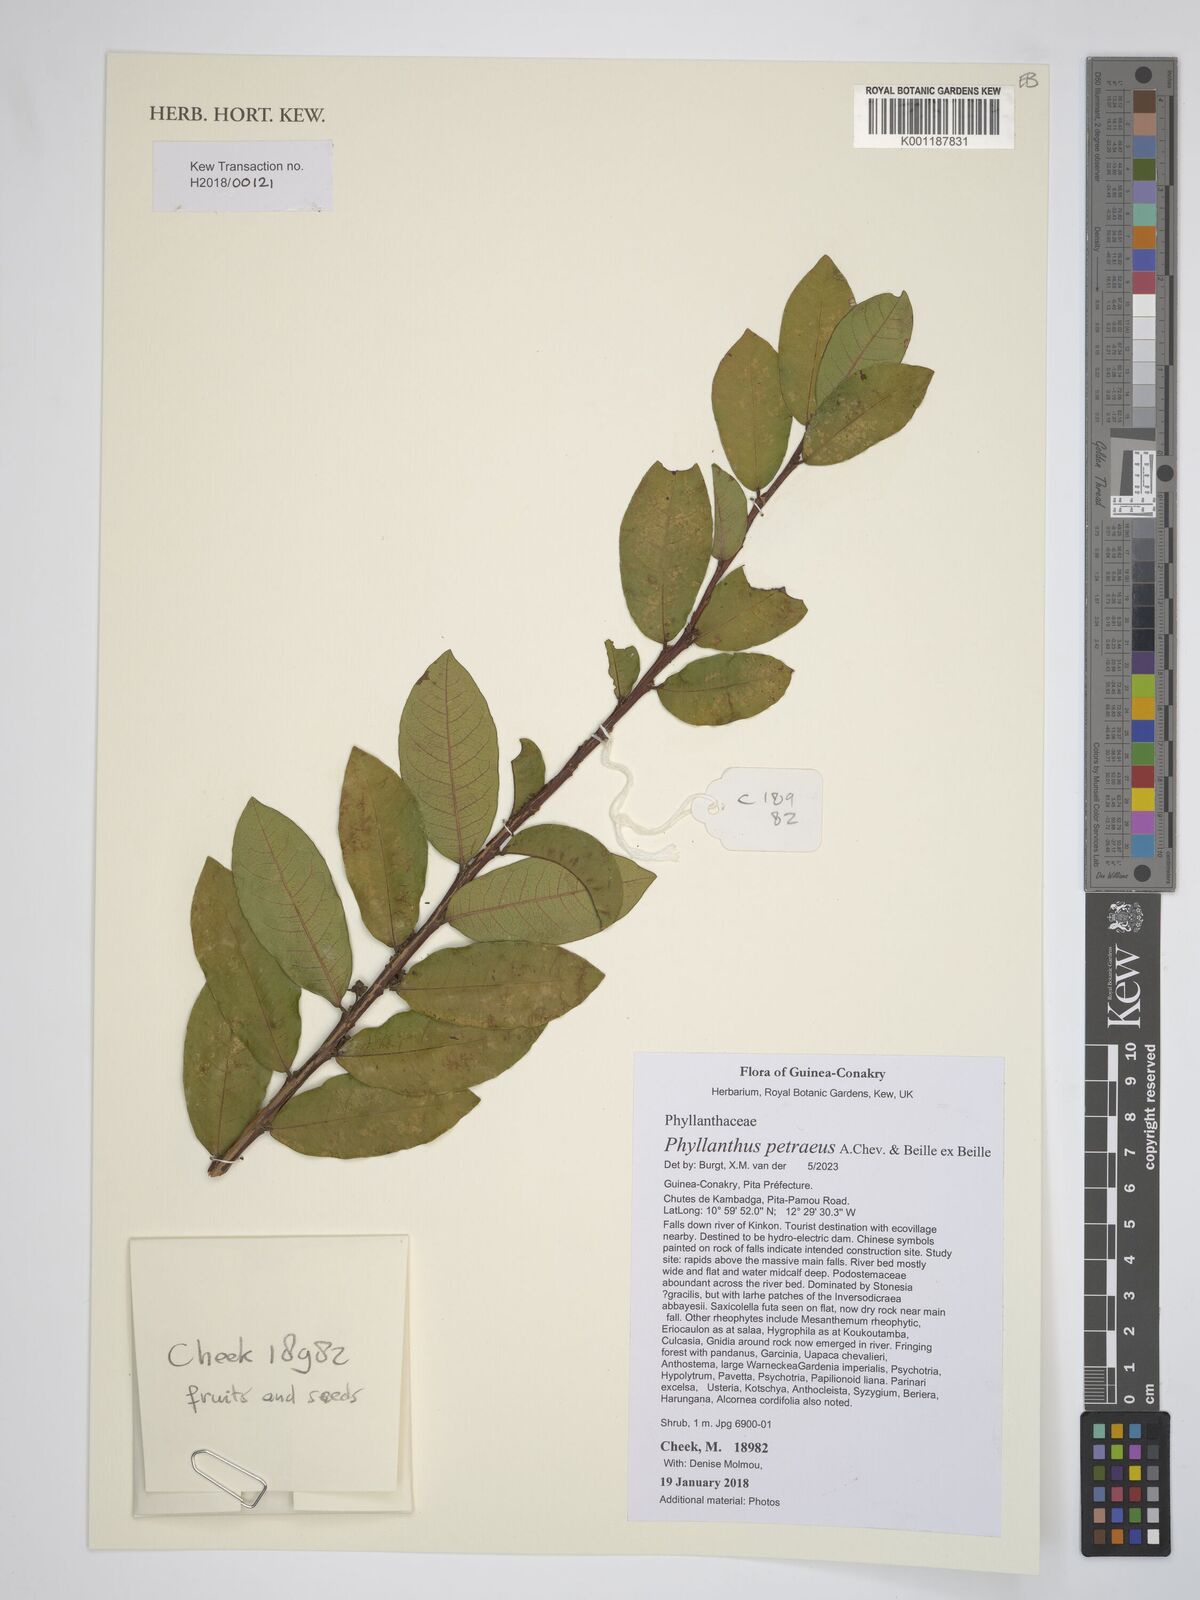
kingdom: Plantae
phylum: Tracheophyta
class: Magnoliopsida
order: Malpighiales
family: Phyllanthaceae
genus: Phyllanthus
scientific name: Phyllanthus petraeus
